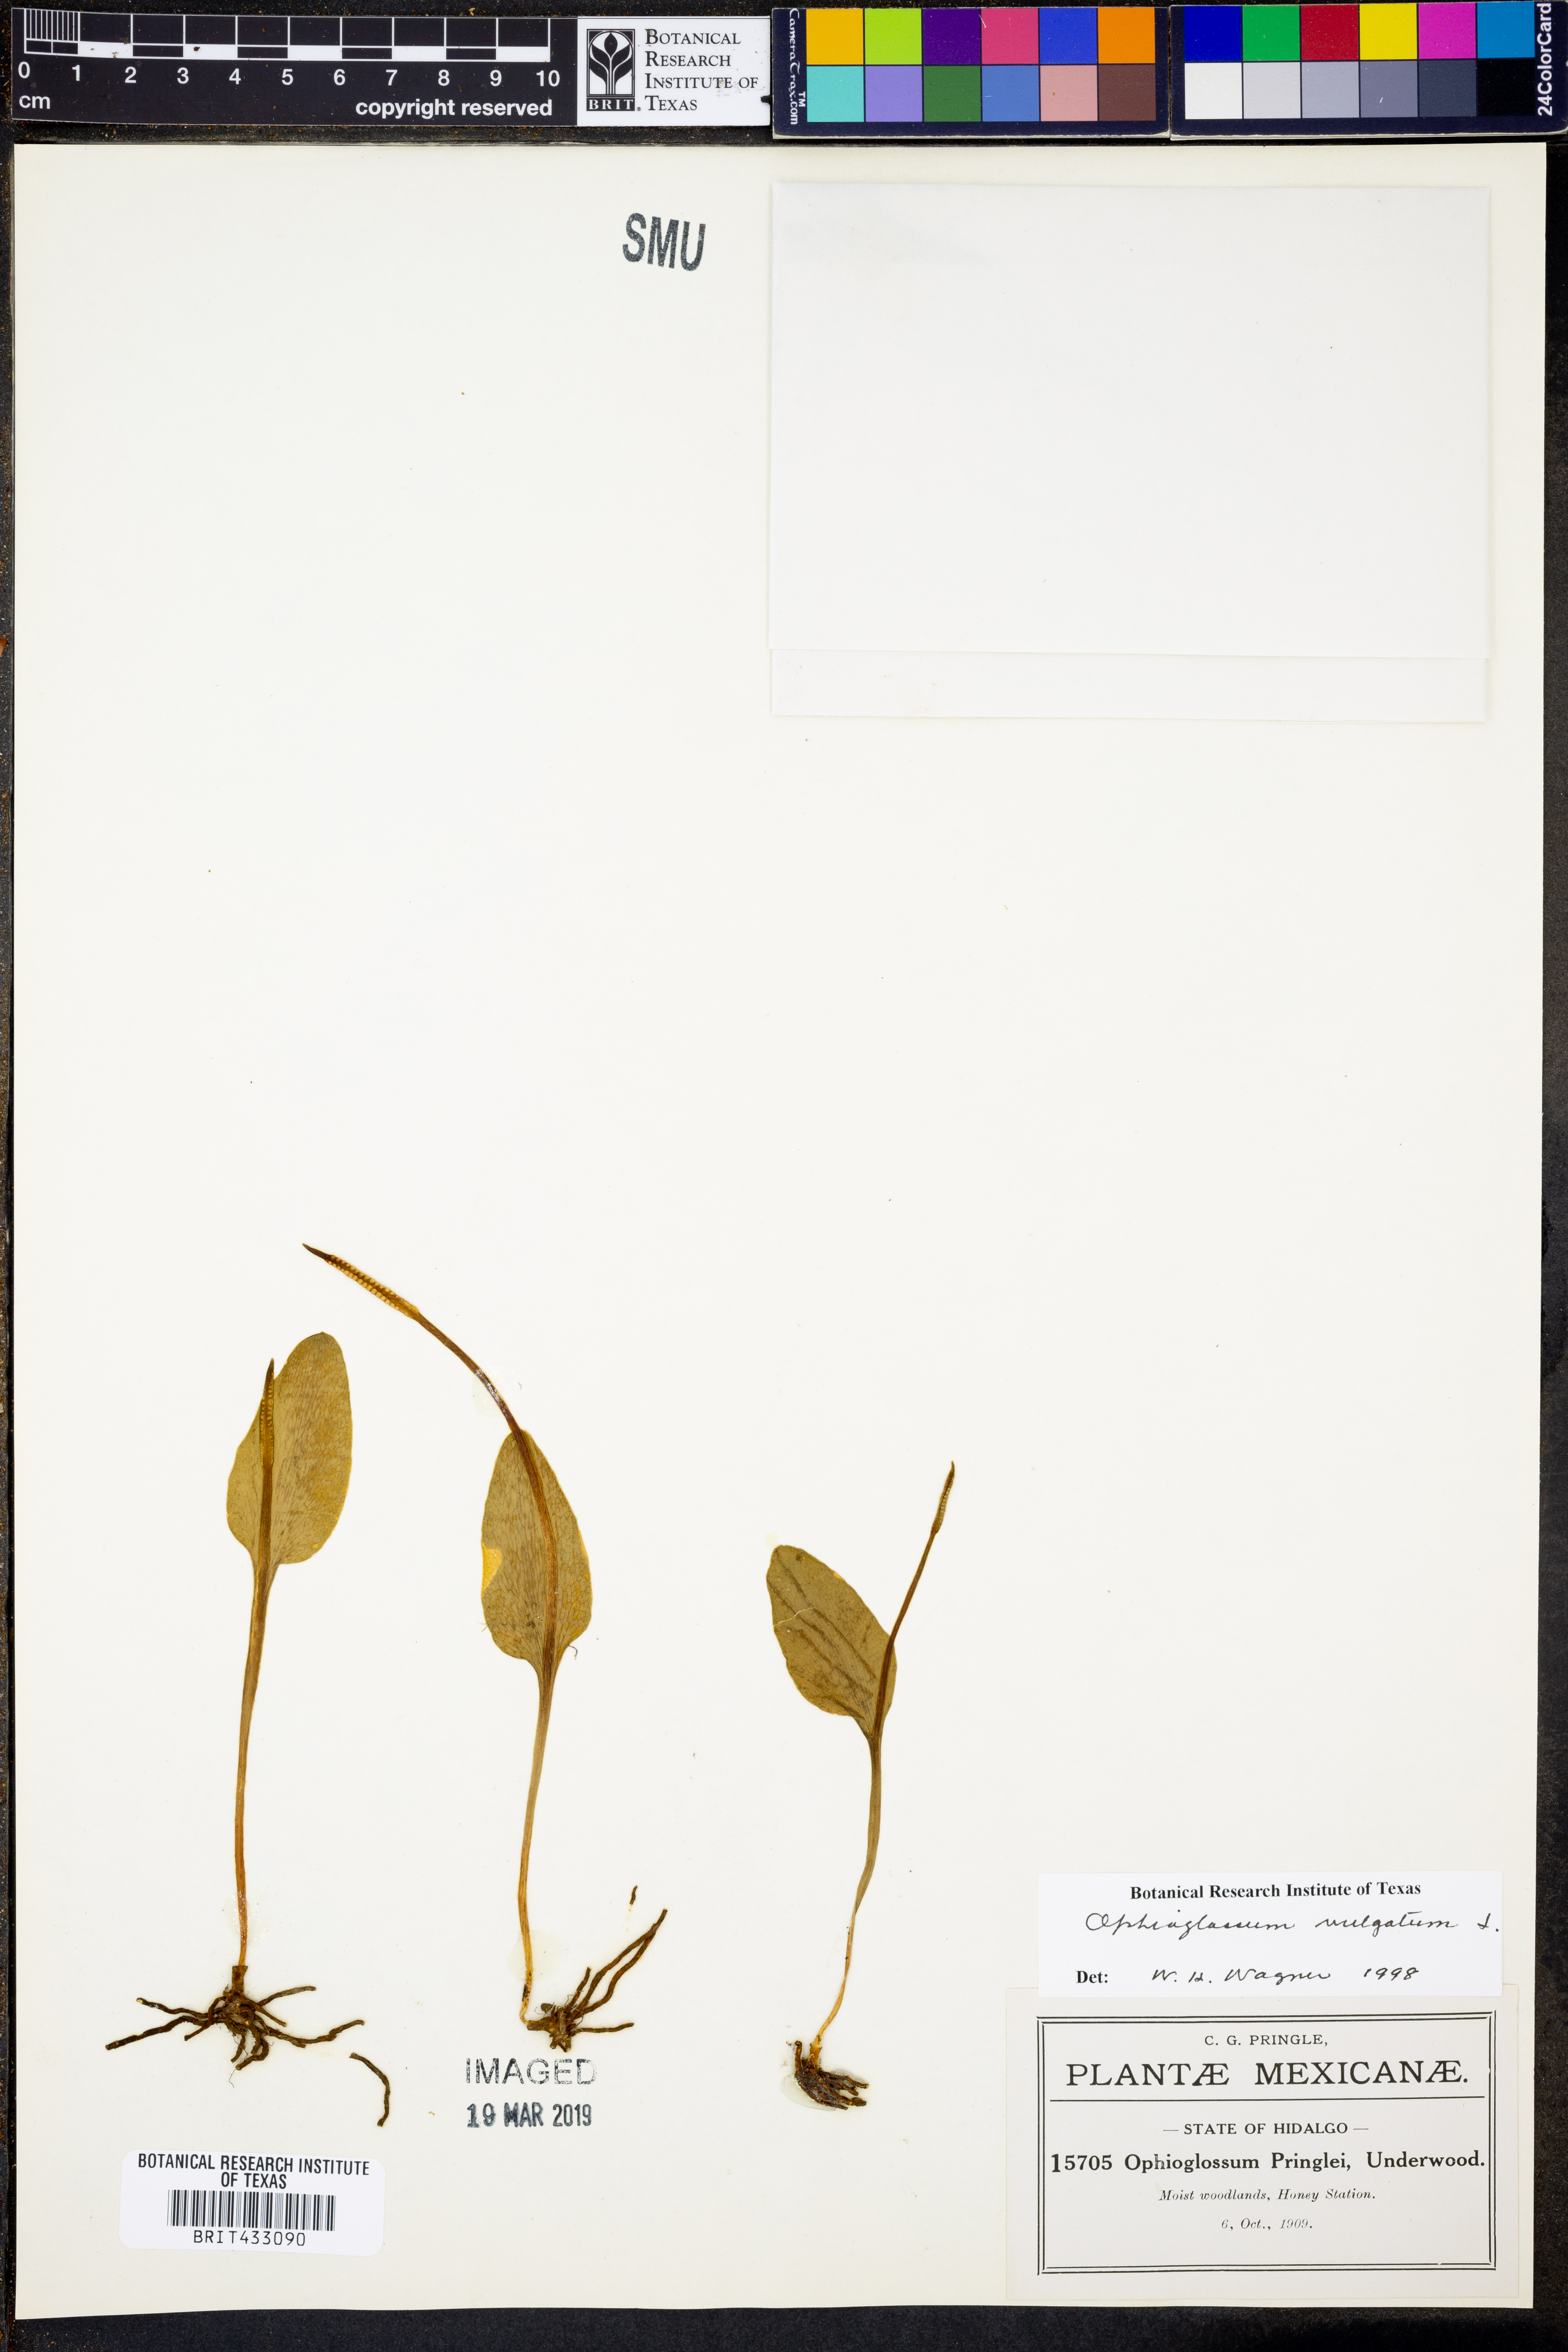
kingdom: Plantae
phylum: Tracheophyta
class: Polypodiopsida
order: Ophioglossales
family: Ophioglossaceae
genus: Ophioglossum
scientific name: Ophioglossum vulgatum
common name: Adder's-tongue
